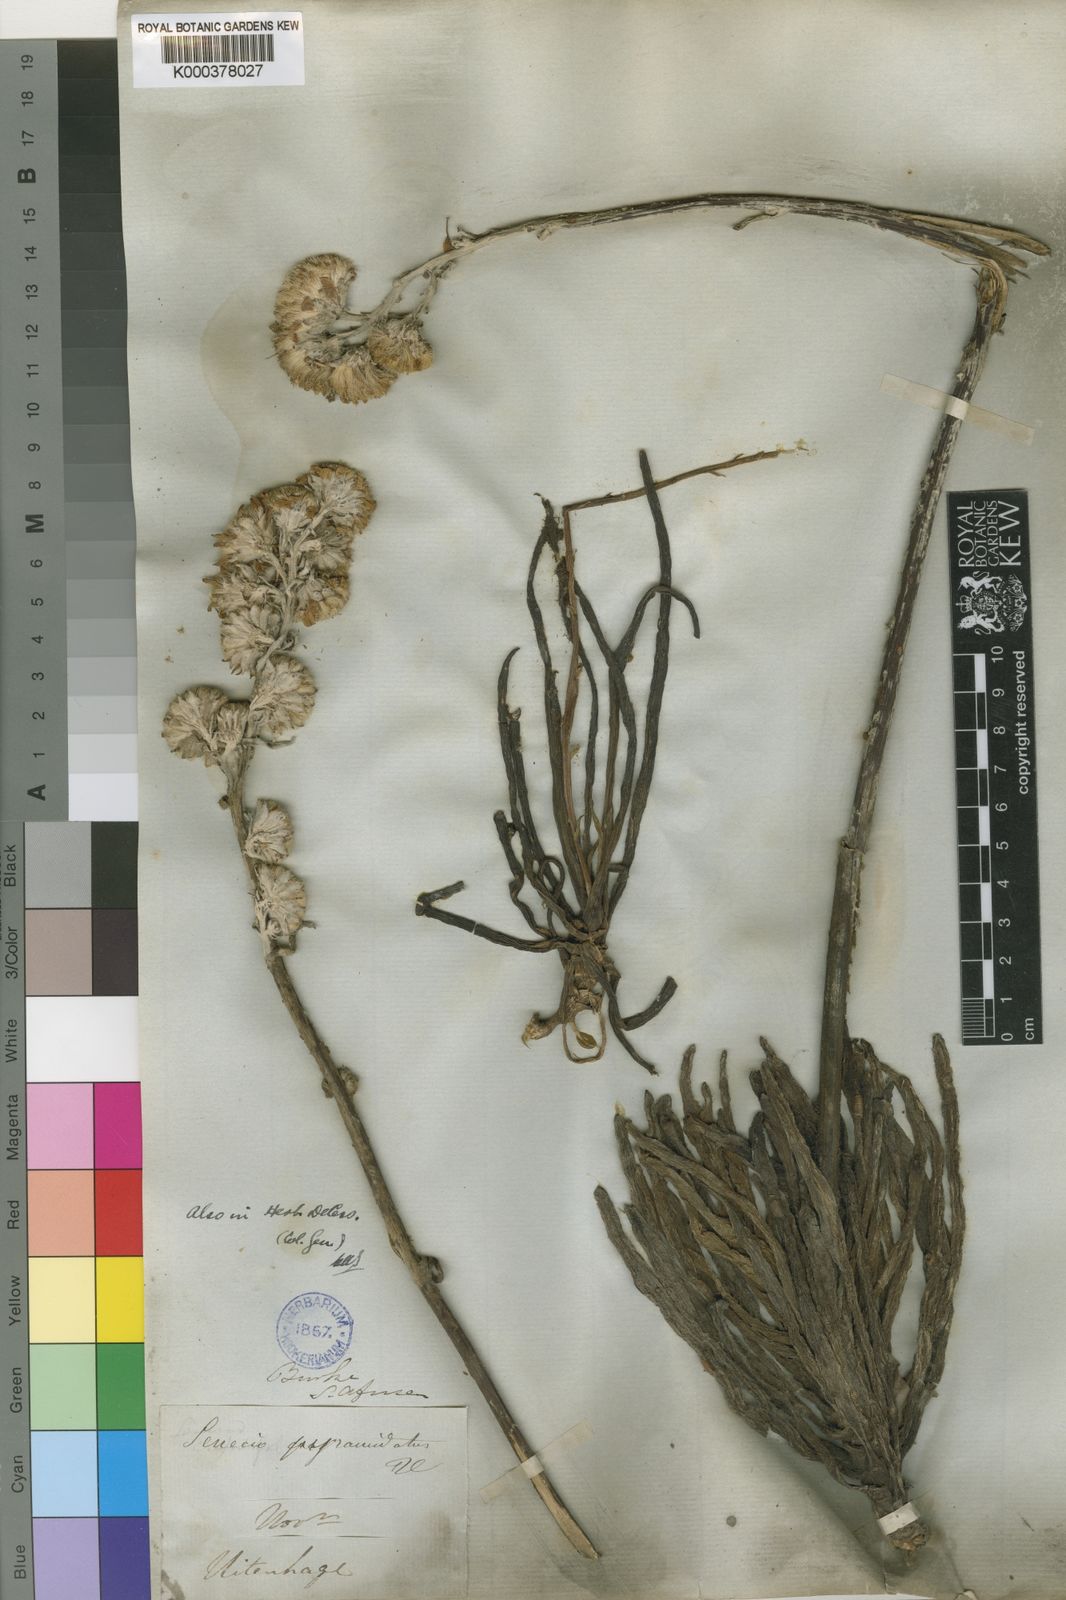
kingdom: Plantae
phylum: Tracheophyta
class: Magnoliopsida
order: Asterales
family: Asteraceae
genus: Caputia
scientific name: Caputia pyramidata
